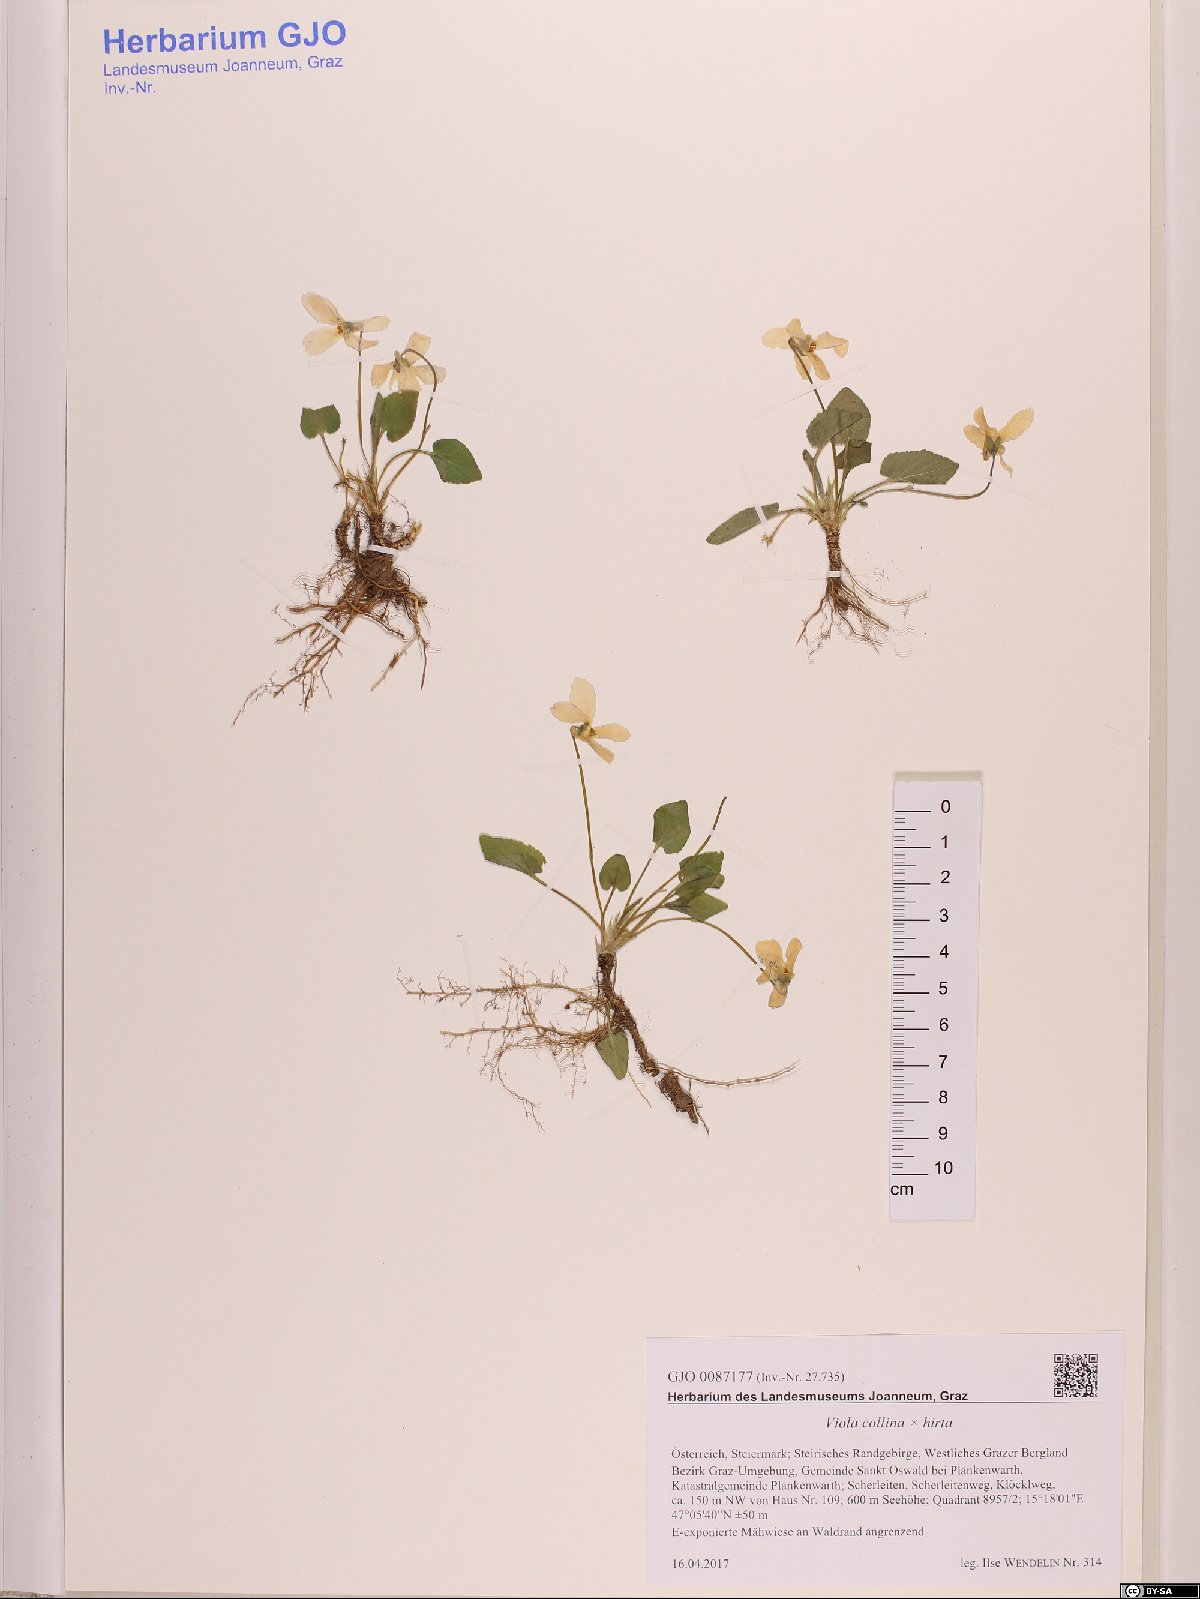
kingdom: Plantae
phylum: Tracheophyta
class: Magnoliopsida
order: Malpighiales
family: Violaceae
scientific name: Violaceae
